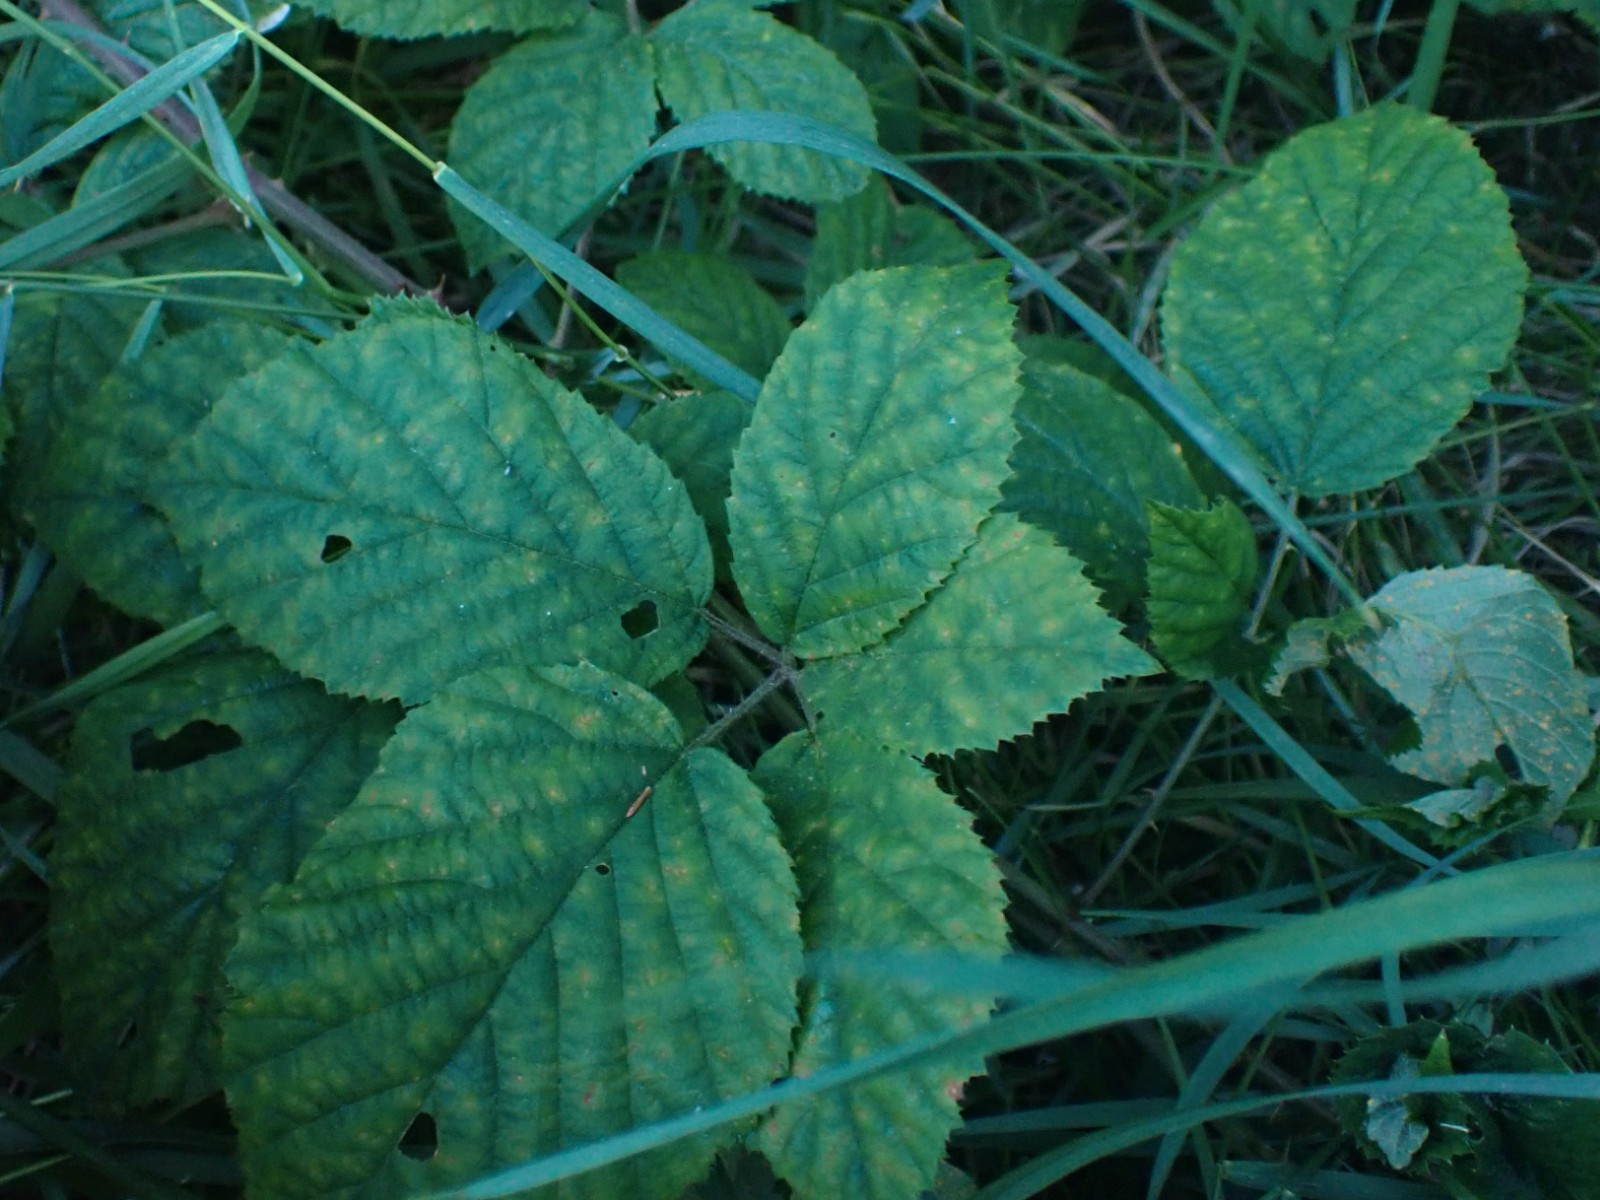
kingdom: Fungi
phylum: Basidiomycota
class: Pucciniomycetes
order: Pucciniales
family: Phragmidiaceae
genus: Phragmidium
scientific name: Phragmidium rubi-idaei
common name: hindbær-flercellerust
